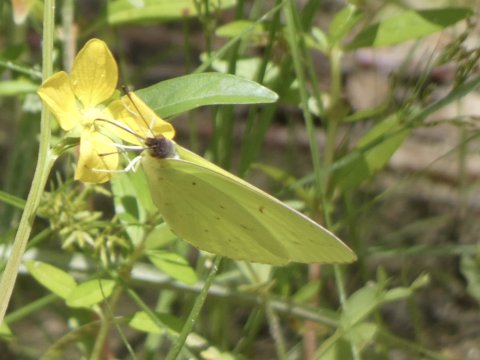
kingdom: Animalia
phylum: Arthropoda
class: Insecta
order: Lepidoptera
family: Pieridae
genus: Phoebis
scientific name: Phoebis sennae
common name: Cloudless Sulphur
